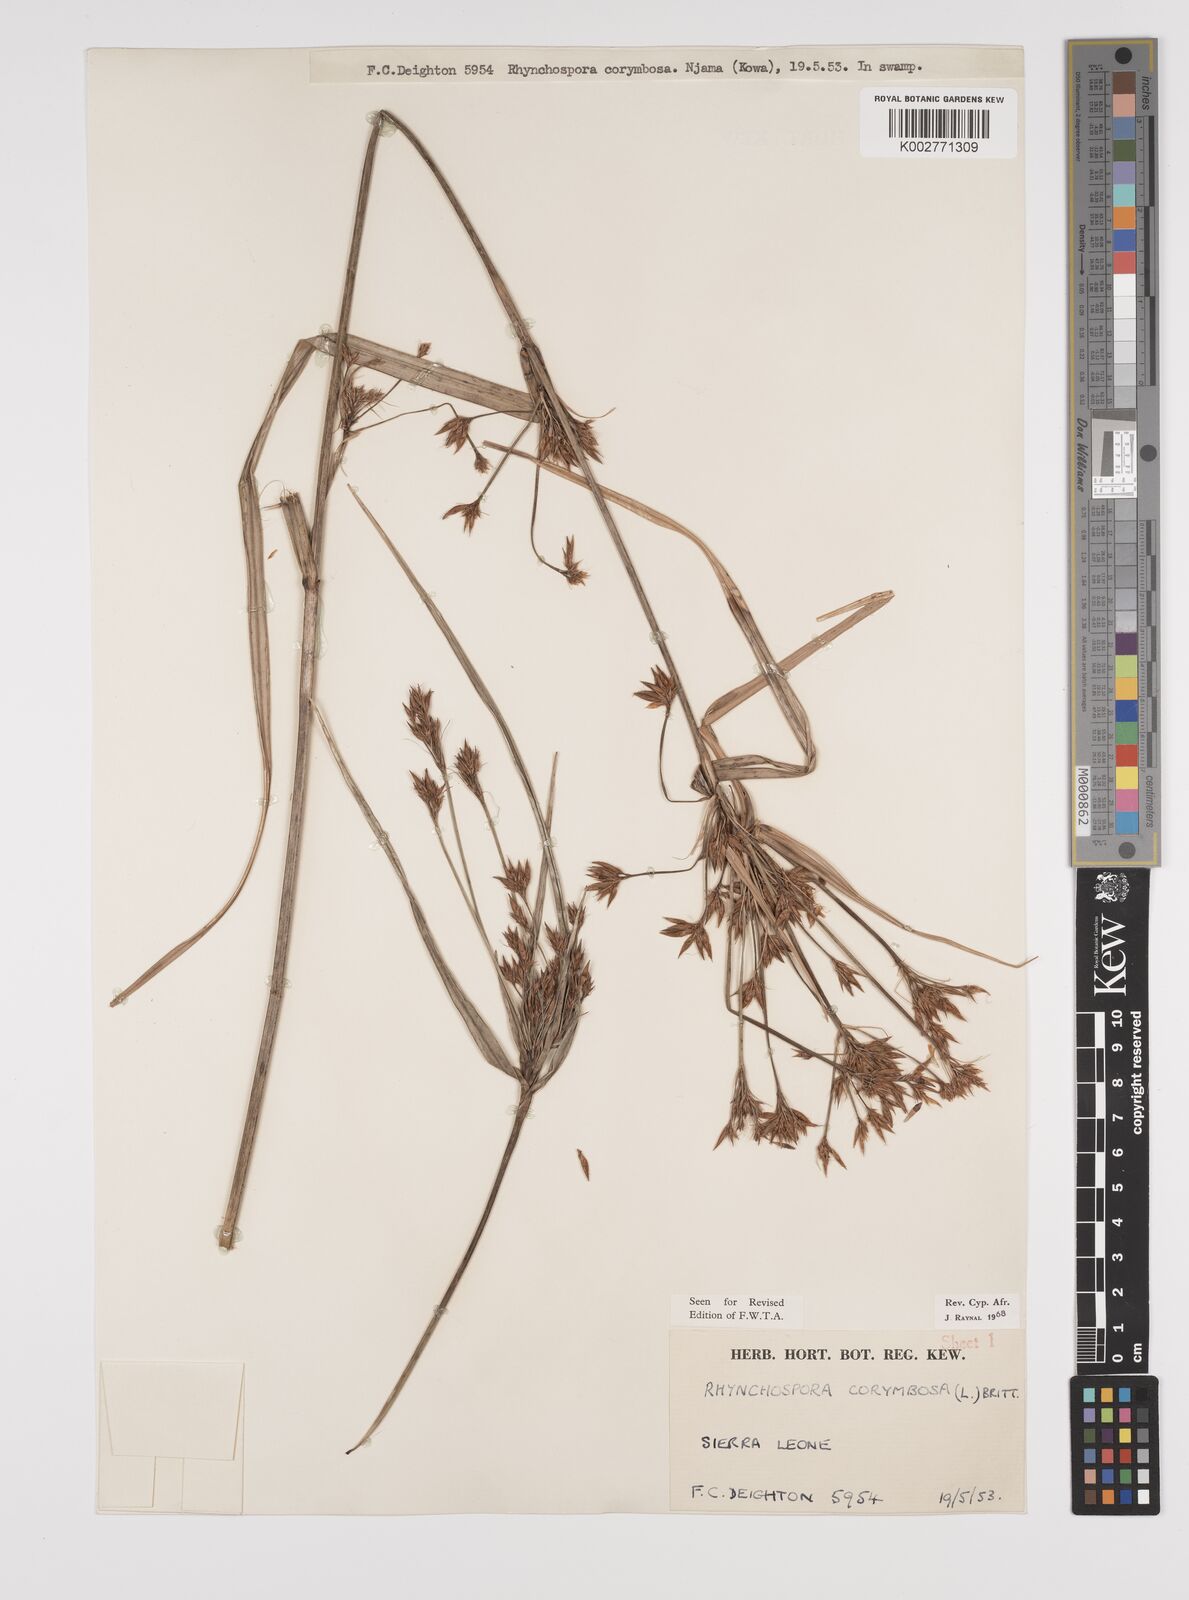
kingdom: Plantae
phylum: Tracheophyta
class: Liliopsida
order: Poales
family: Cyperaceae
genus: Rhynchospora
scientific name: Rhynchospora corymbosa
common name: Golden beak sedge
